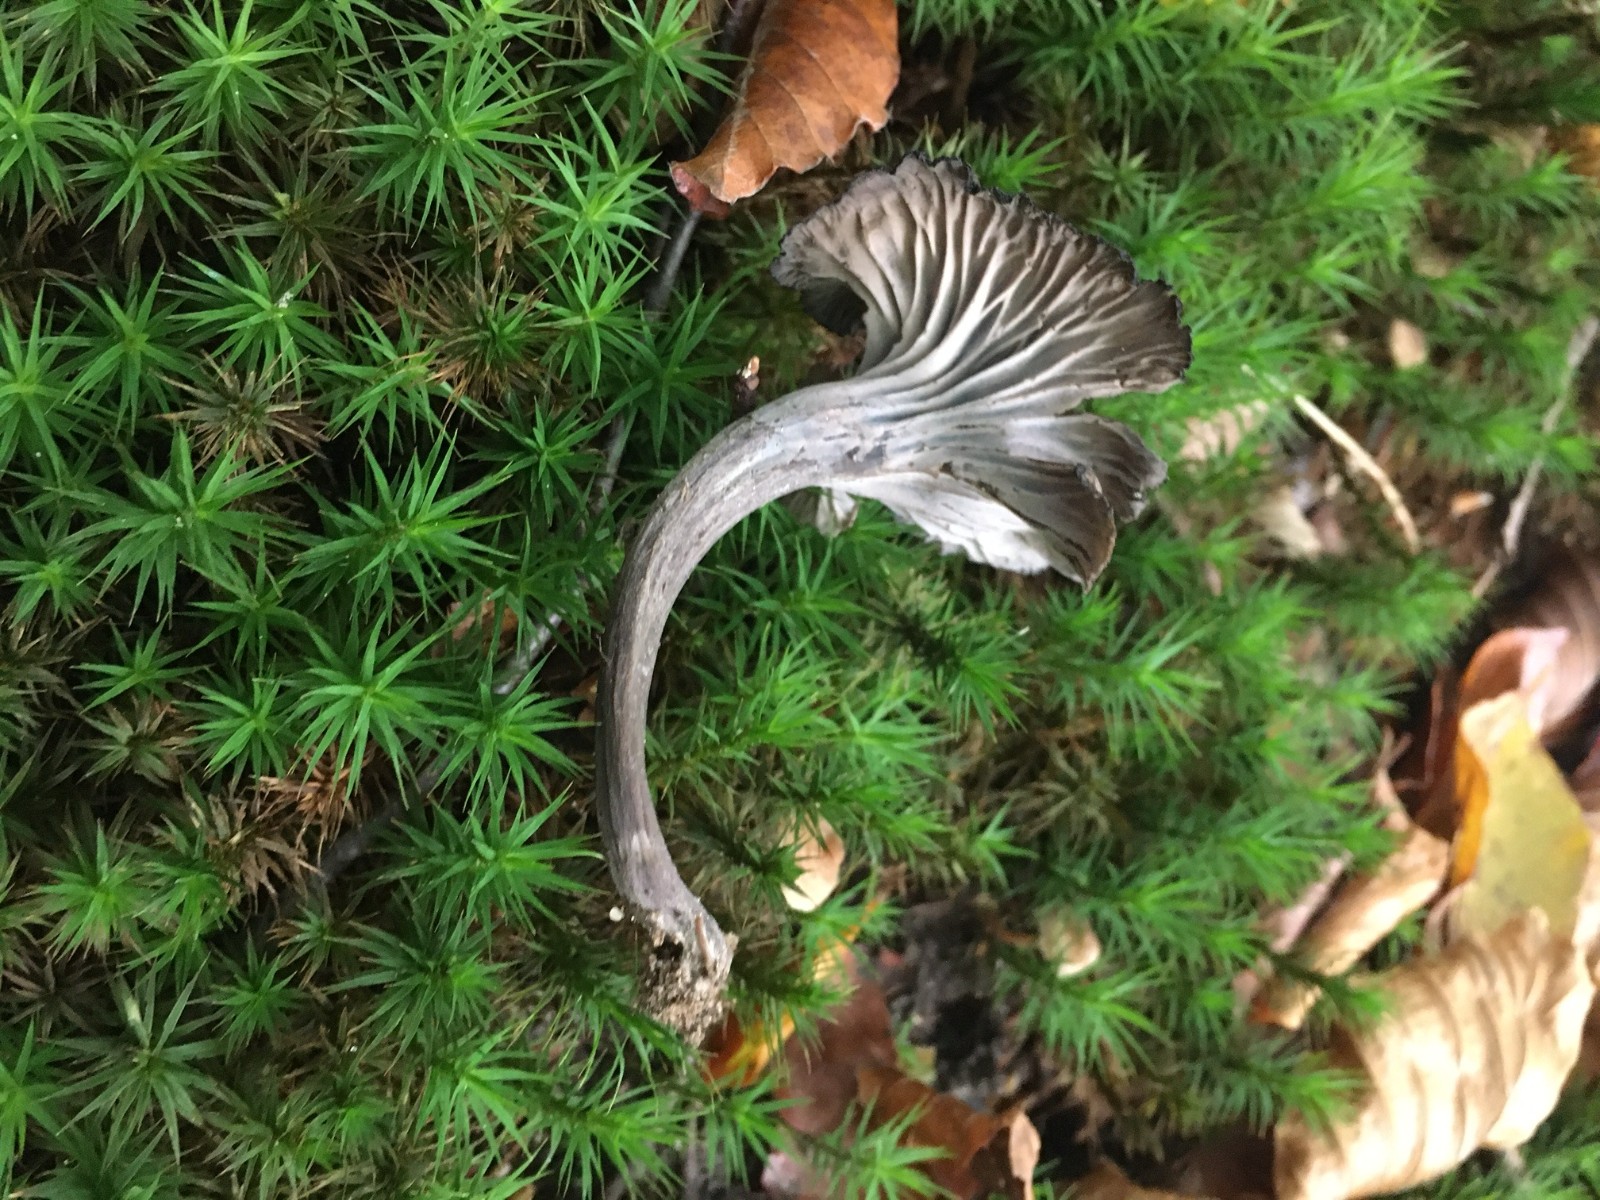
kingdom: Fungi
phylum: Basidiomycota
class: Agaricomycetes
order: Cantharellales
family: Hydnaceae
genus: Cantharellus
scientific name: Cantharellus cinereus
